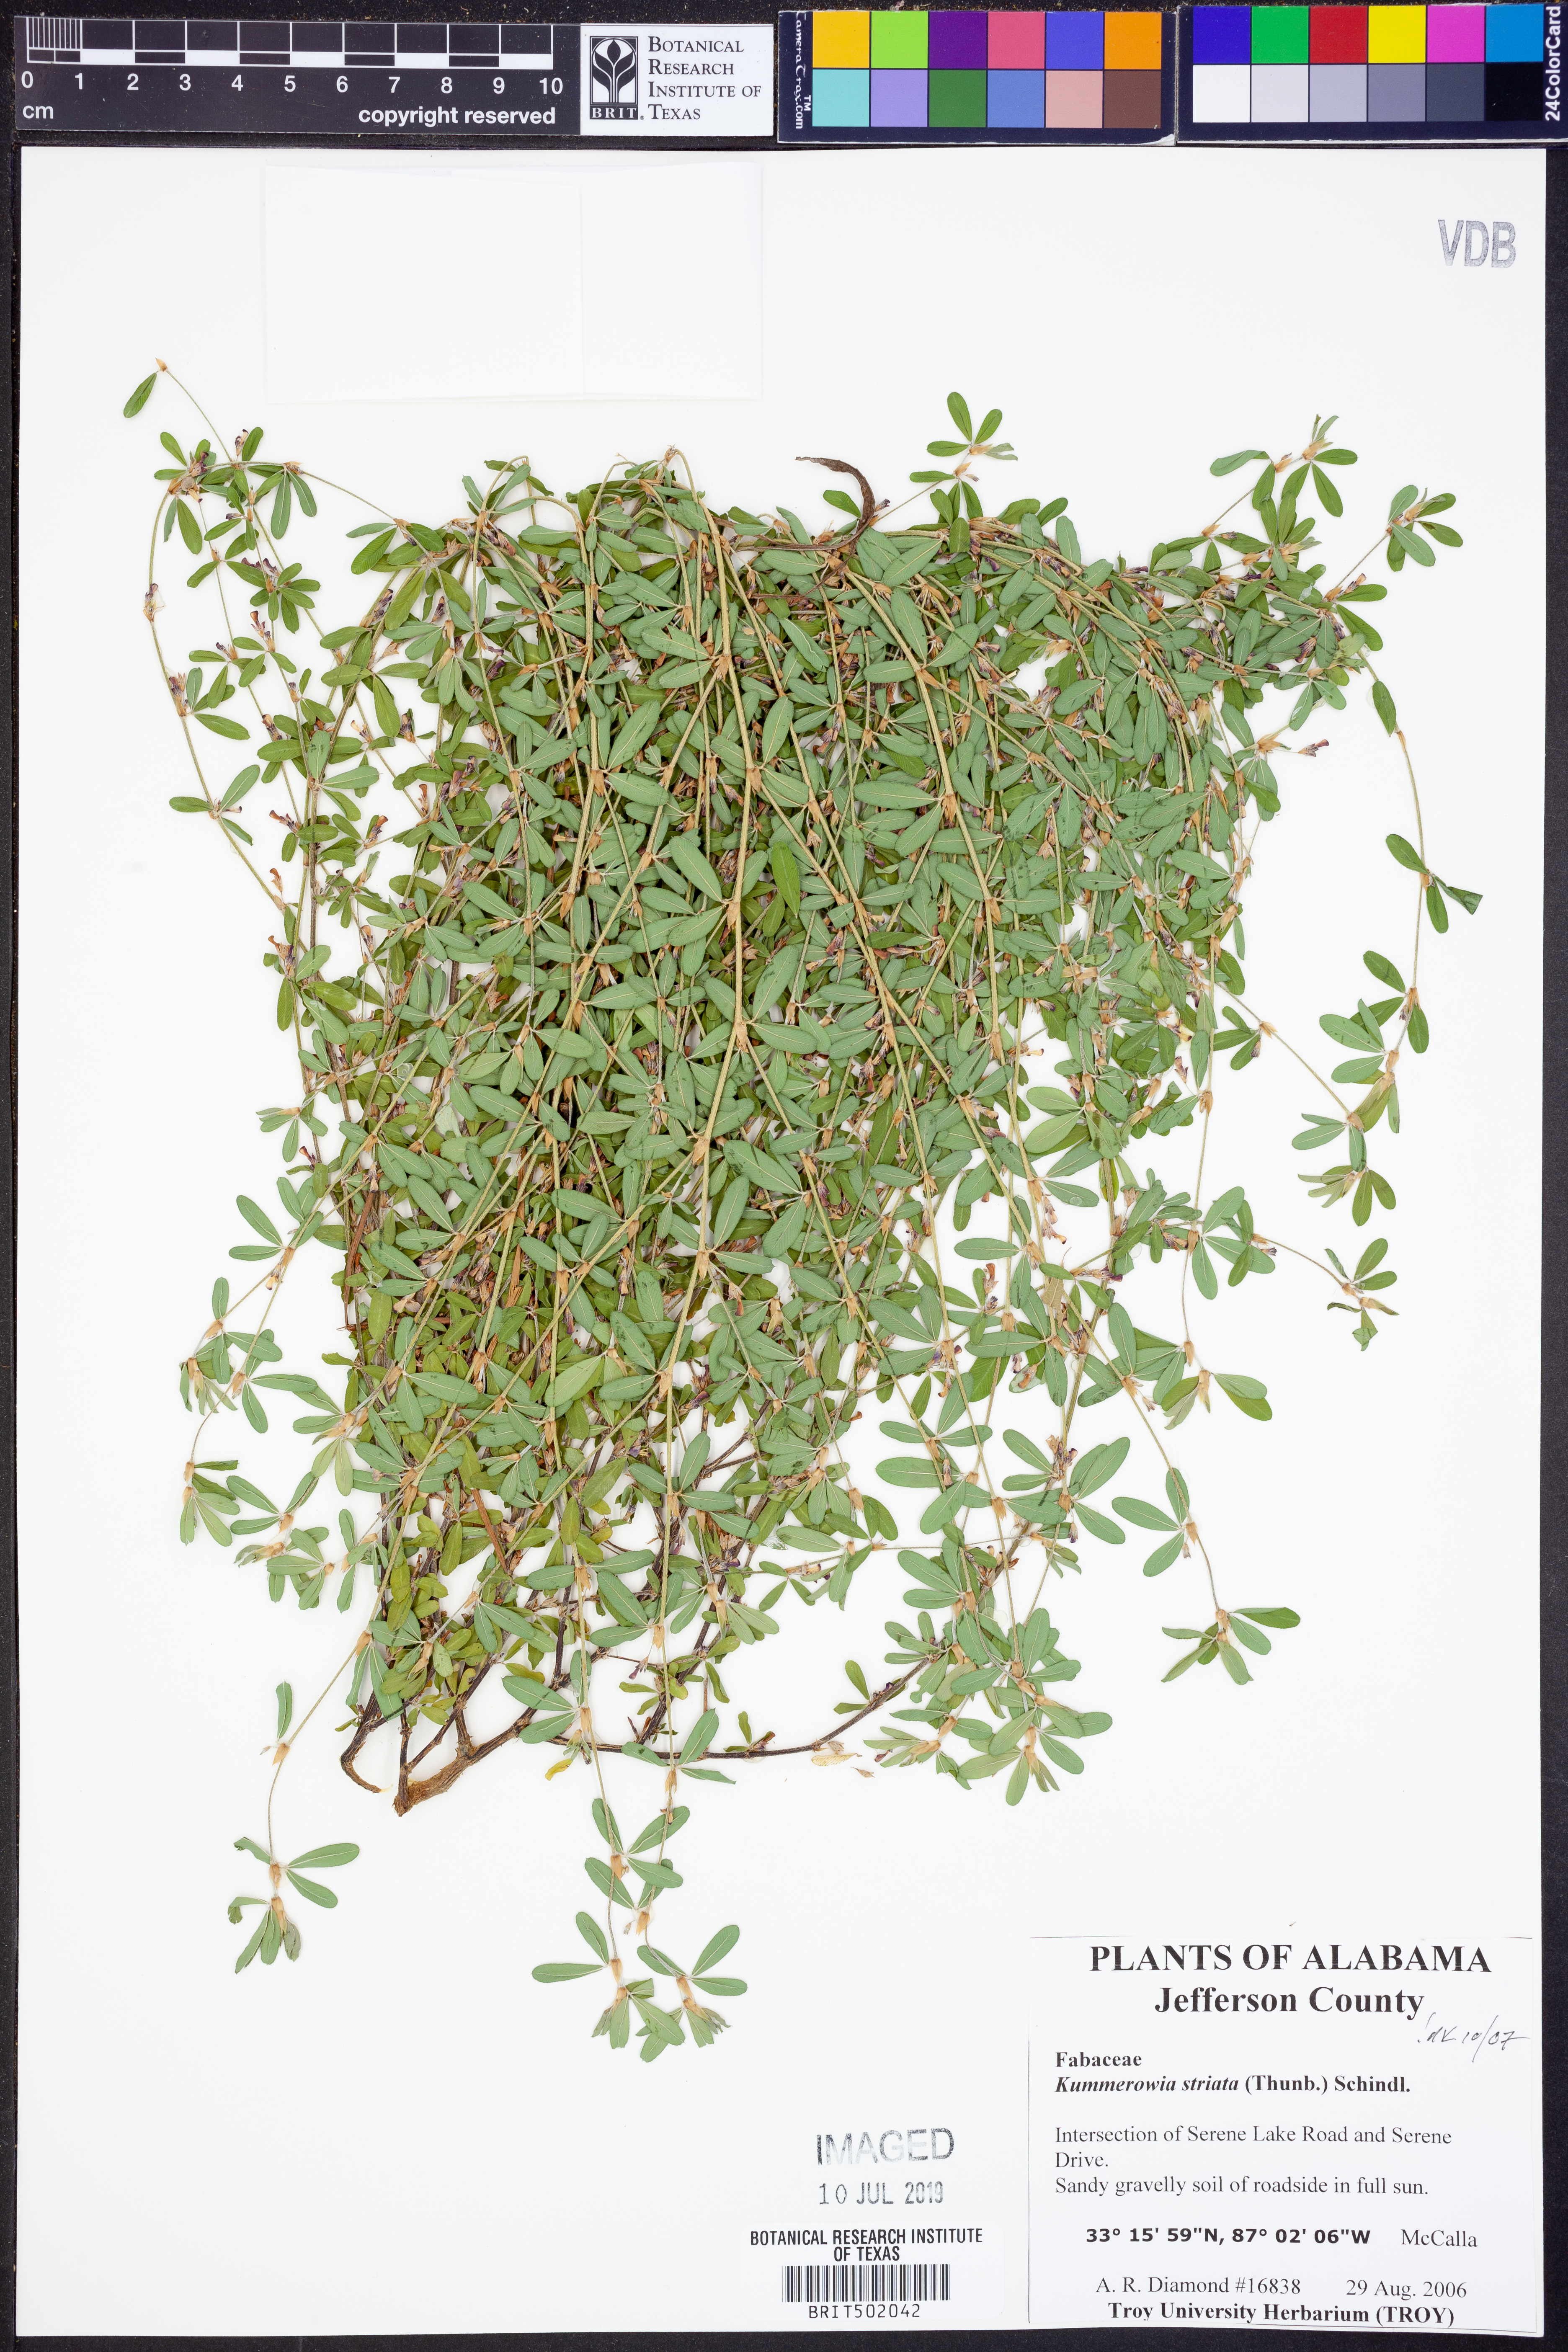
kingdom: Plantae
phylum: Tracheophyta
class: Magnoliopsida
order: Fabales
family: Fabaceae
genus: Kummerowia
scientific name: Kummerowia striata
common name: Japanese clover
